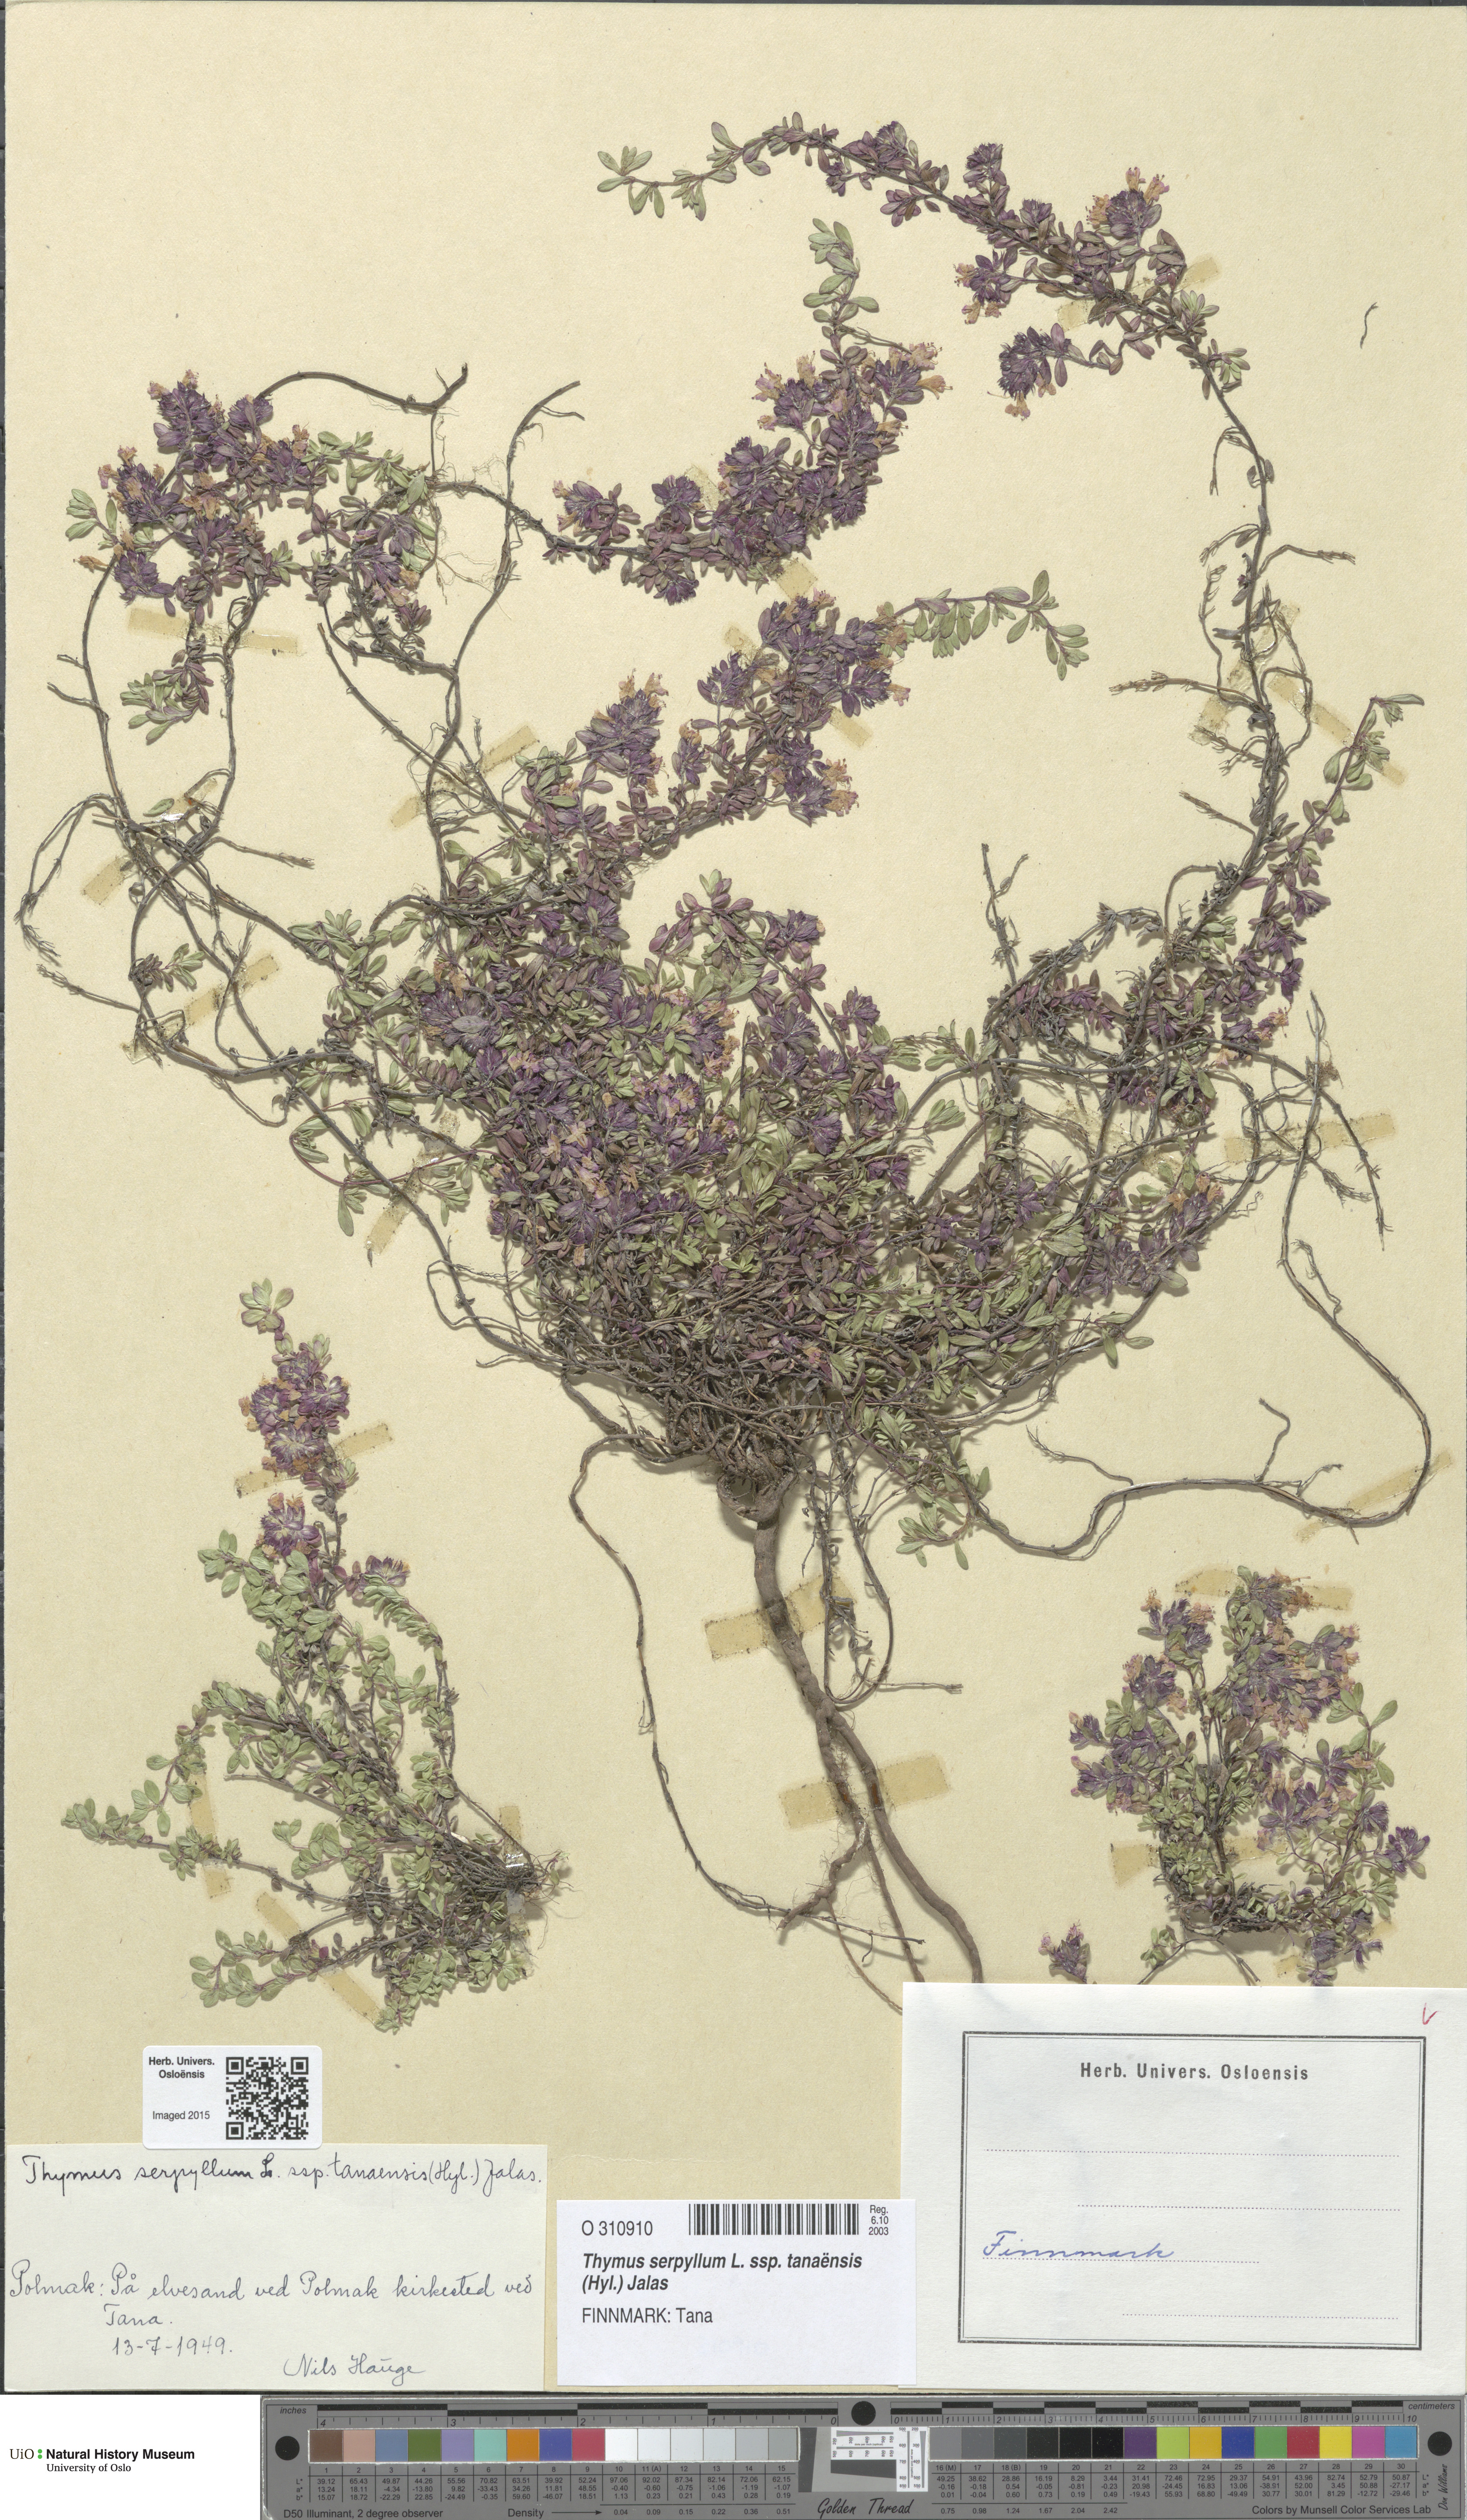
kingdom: Plantae
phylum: Tracheophyta
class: Magnoliopsida
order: Lamiales
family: Lamiaceae
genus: Thymus
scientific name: Thymus serpyllum
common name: Breckland thyme
